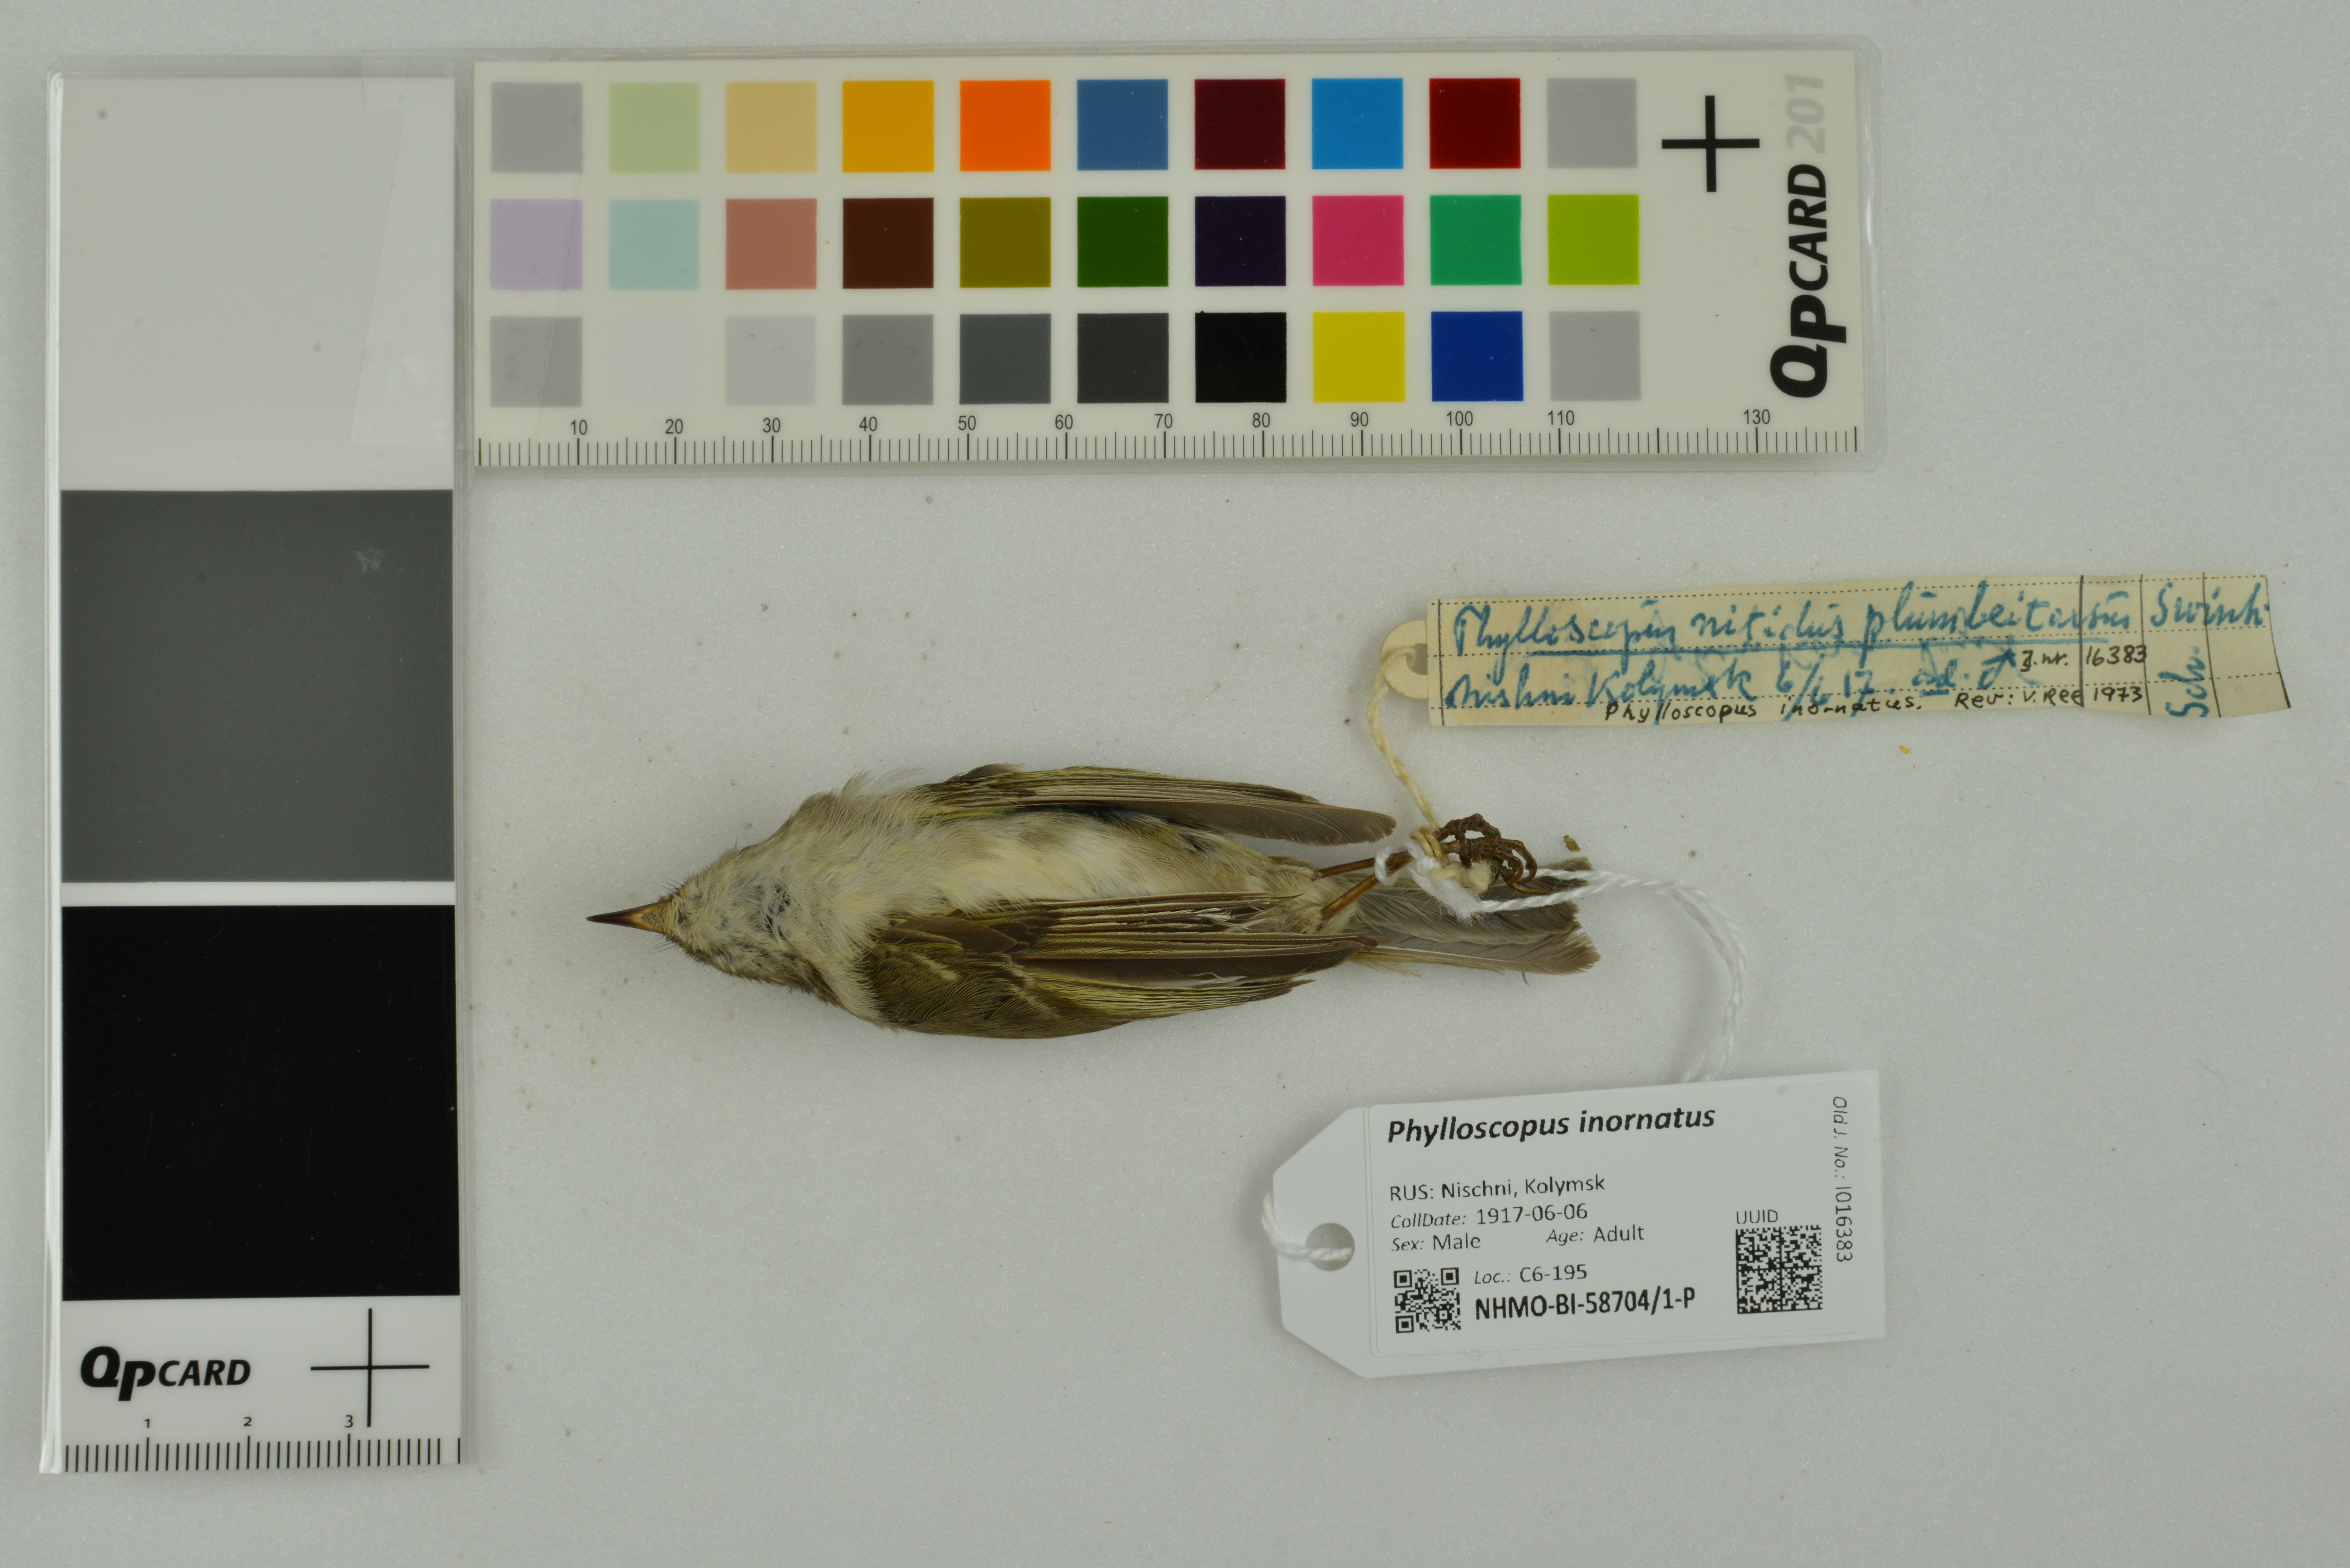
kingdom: Animalia
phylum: Chordata
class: Aves
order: Passeriformes
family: Phylloscopidae
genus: Phylloscopus
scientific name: Phylloscopus inornatus
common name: Yellow-browed warbler
